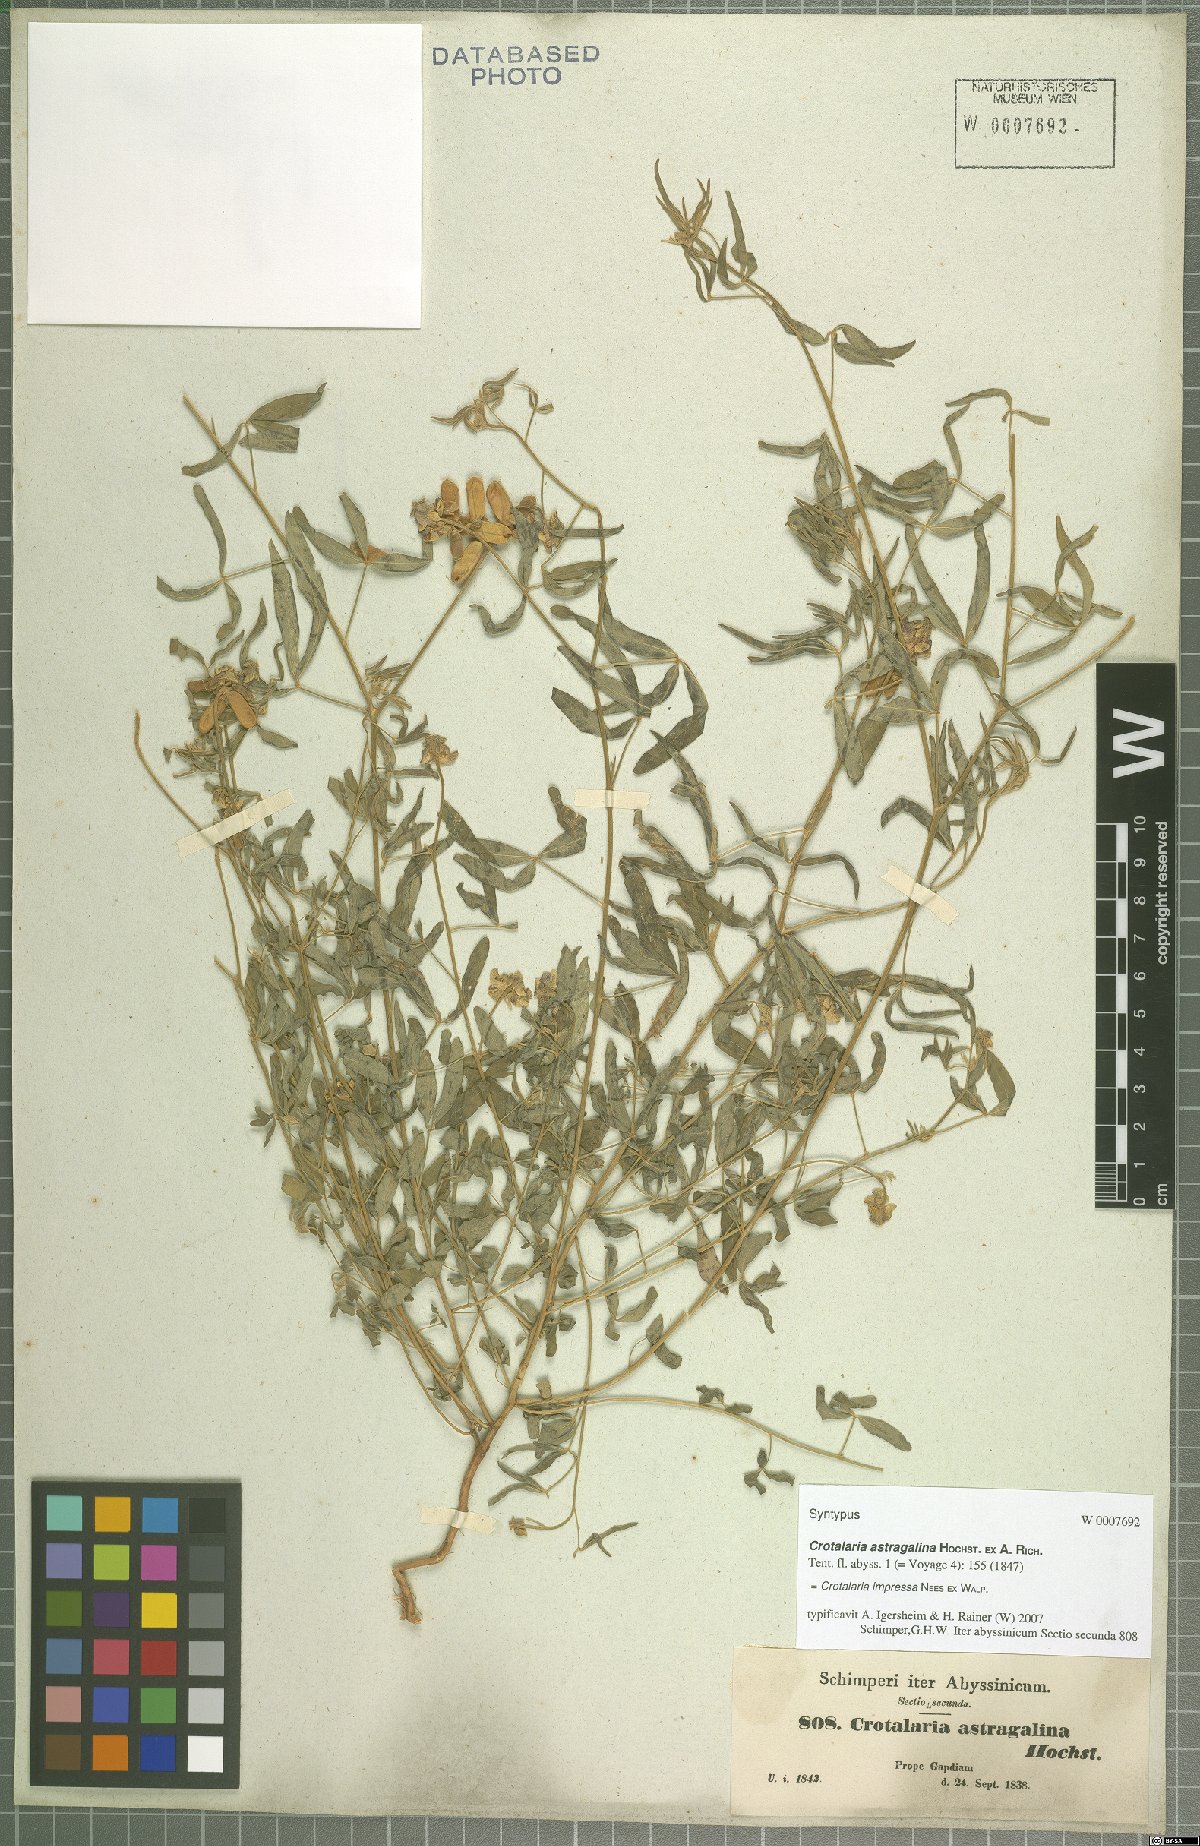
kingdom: Plantae
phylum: Tracheophyta
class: Magnoliopsida
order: Fabales
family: Fabaceae
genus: Crotalaria
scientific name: Crotalaria impressa
